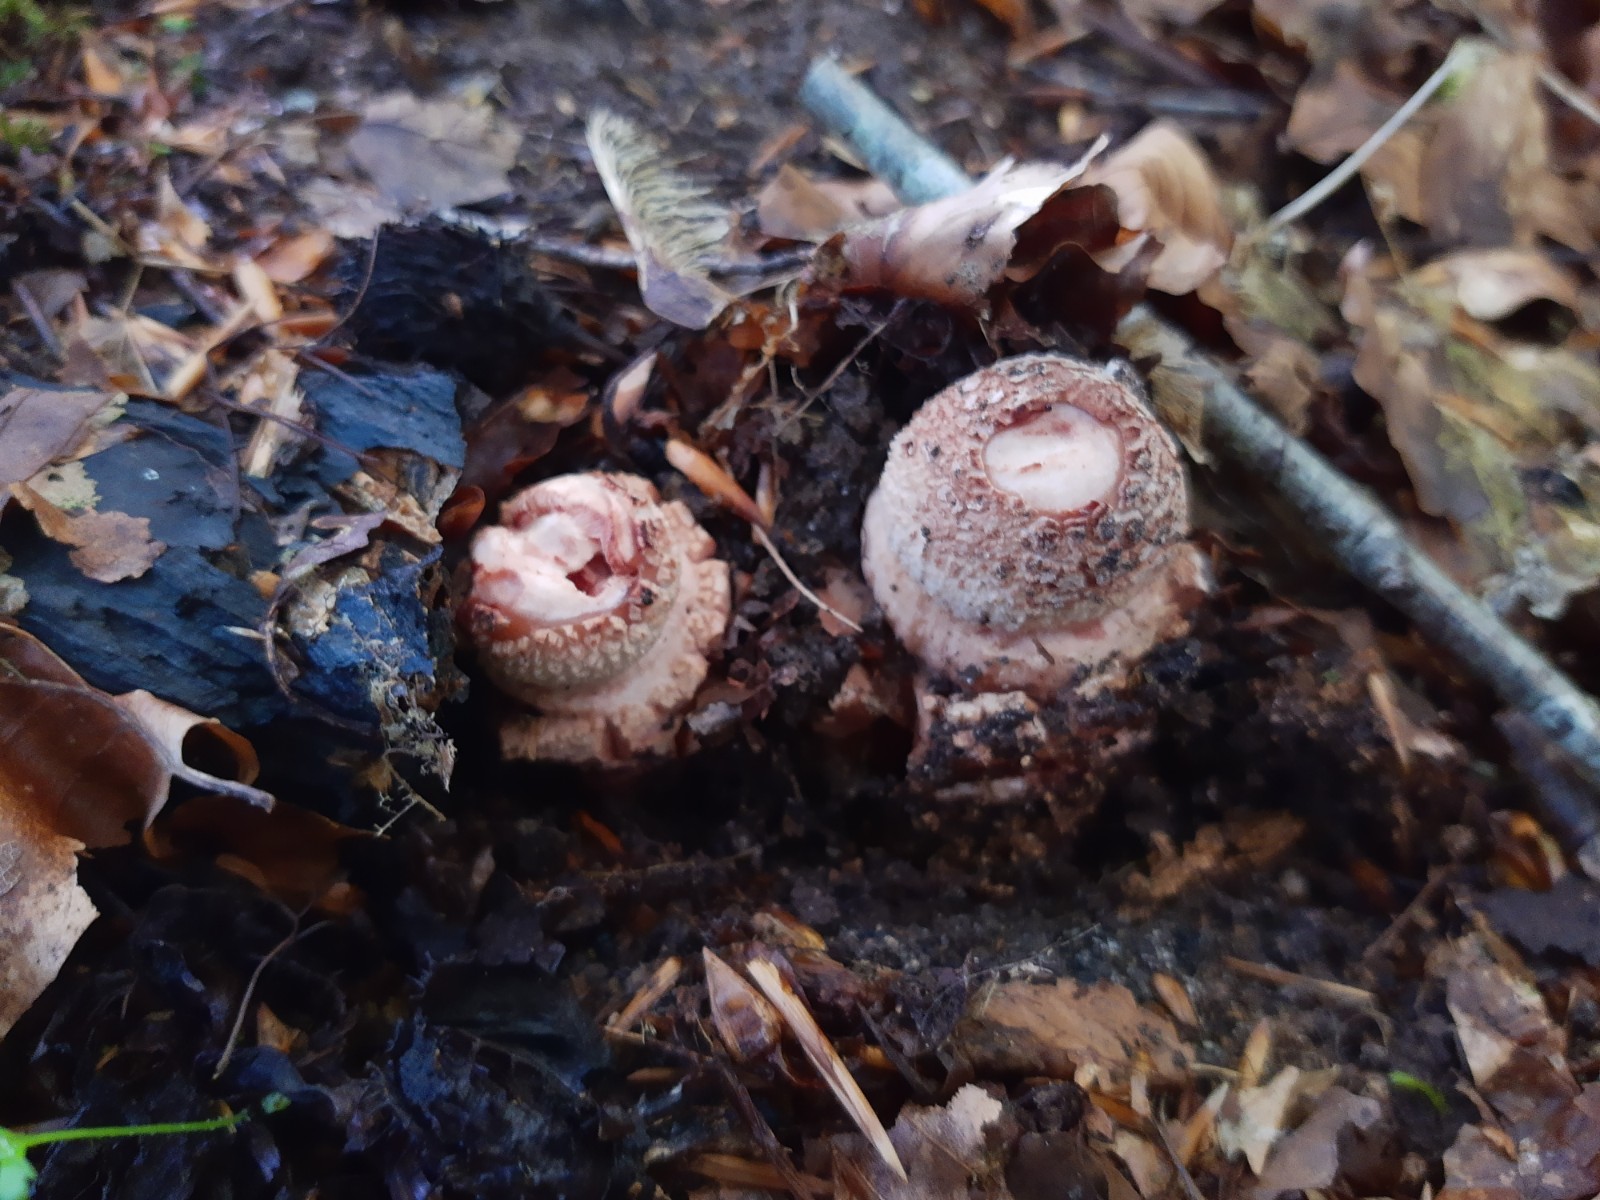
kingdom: Fungi
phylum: Basidiomycota
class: Agaricomycetes
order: Agaricales
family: Amanitaceae
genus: Amanita
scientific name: Amanita rubescens
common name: rødmende fluesvamp
